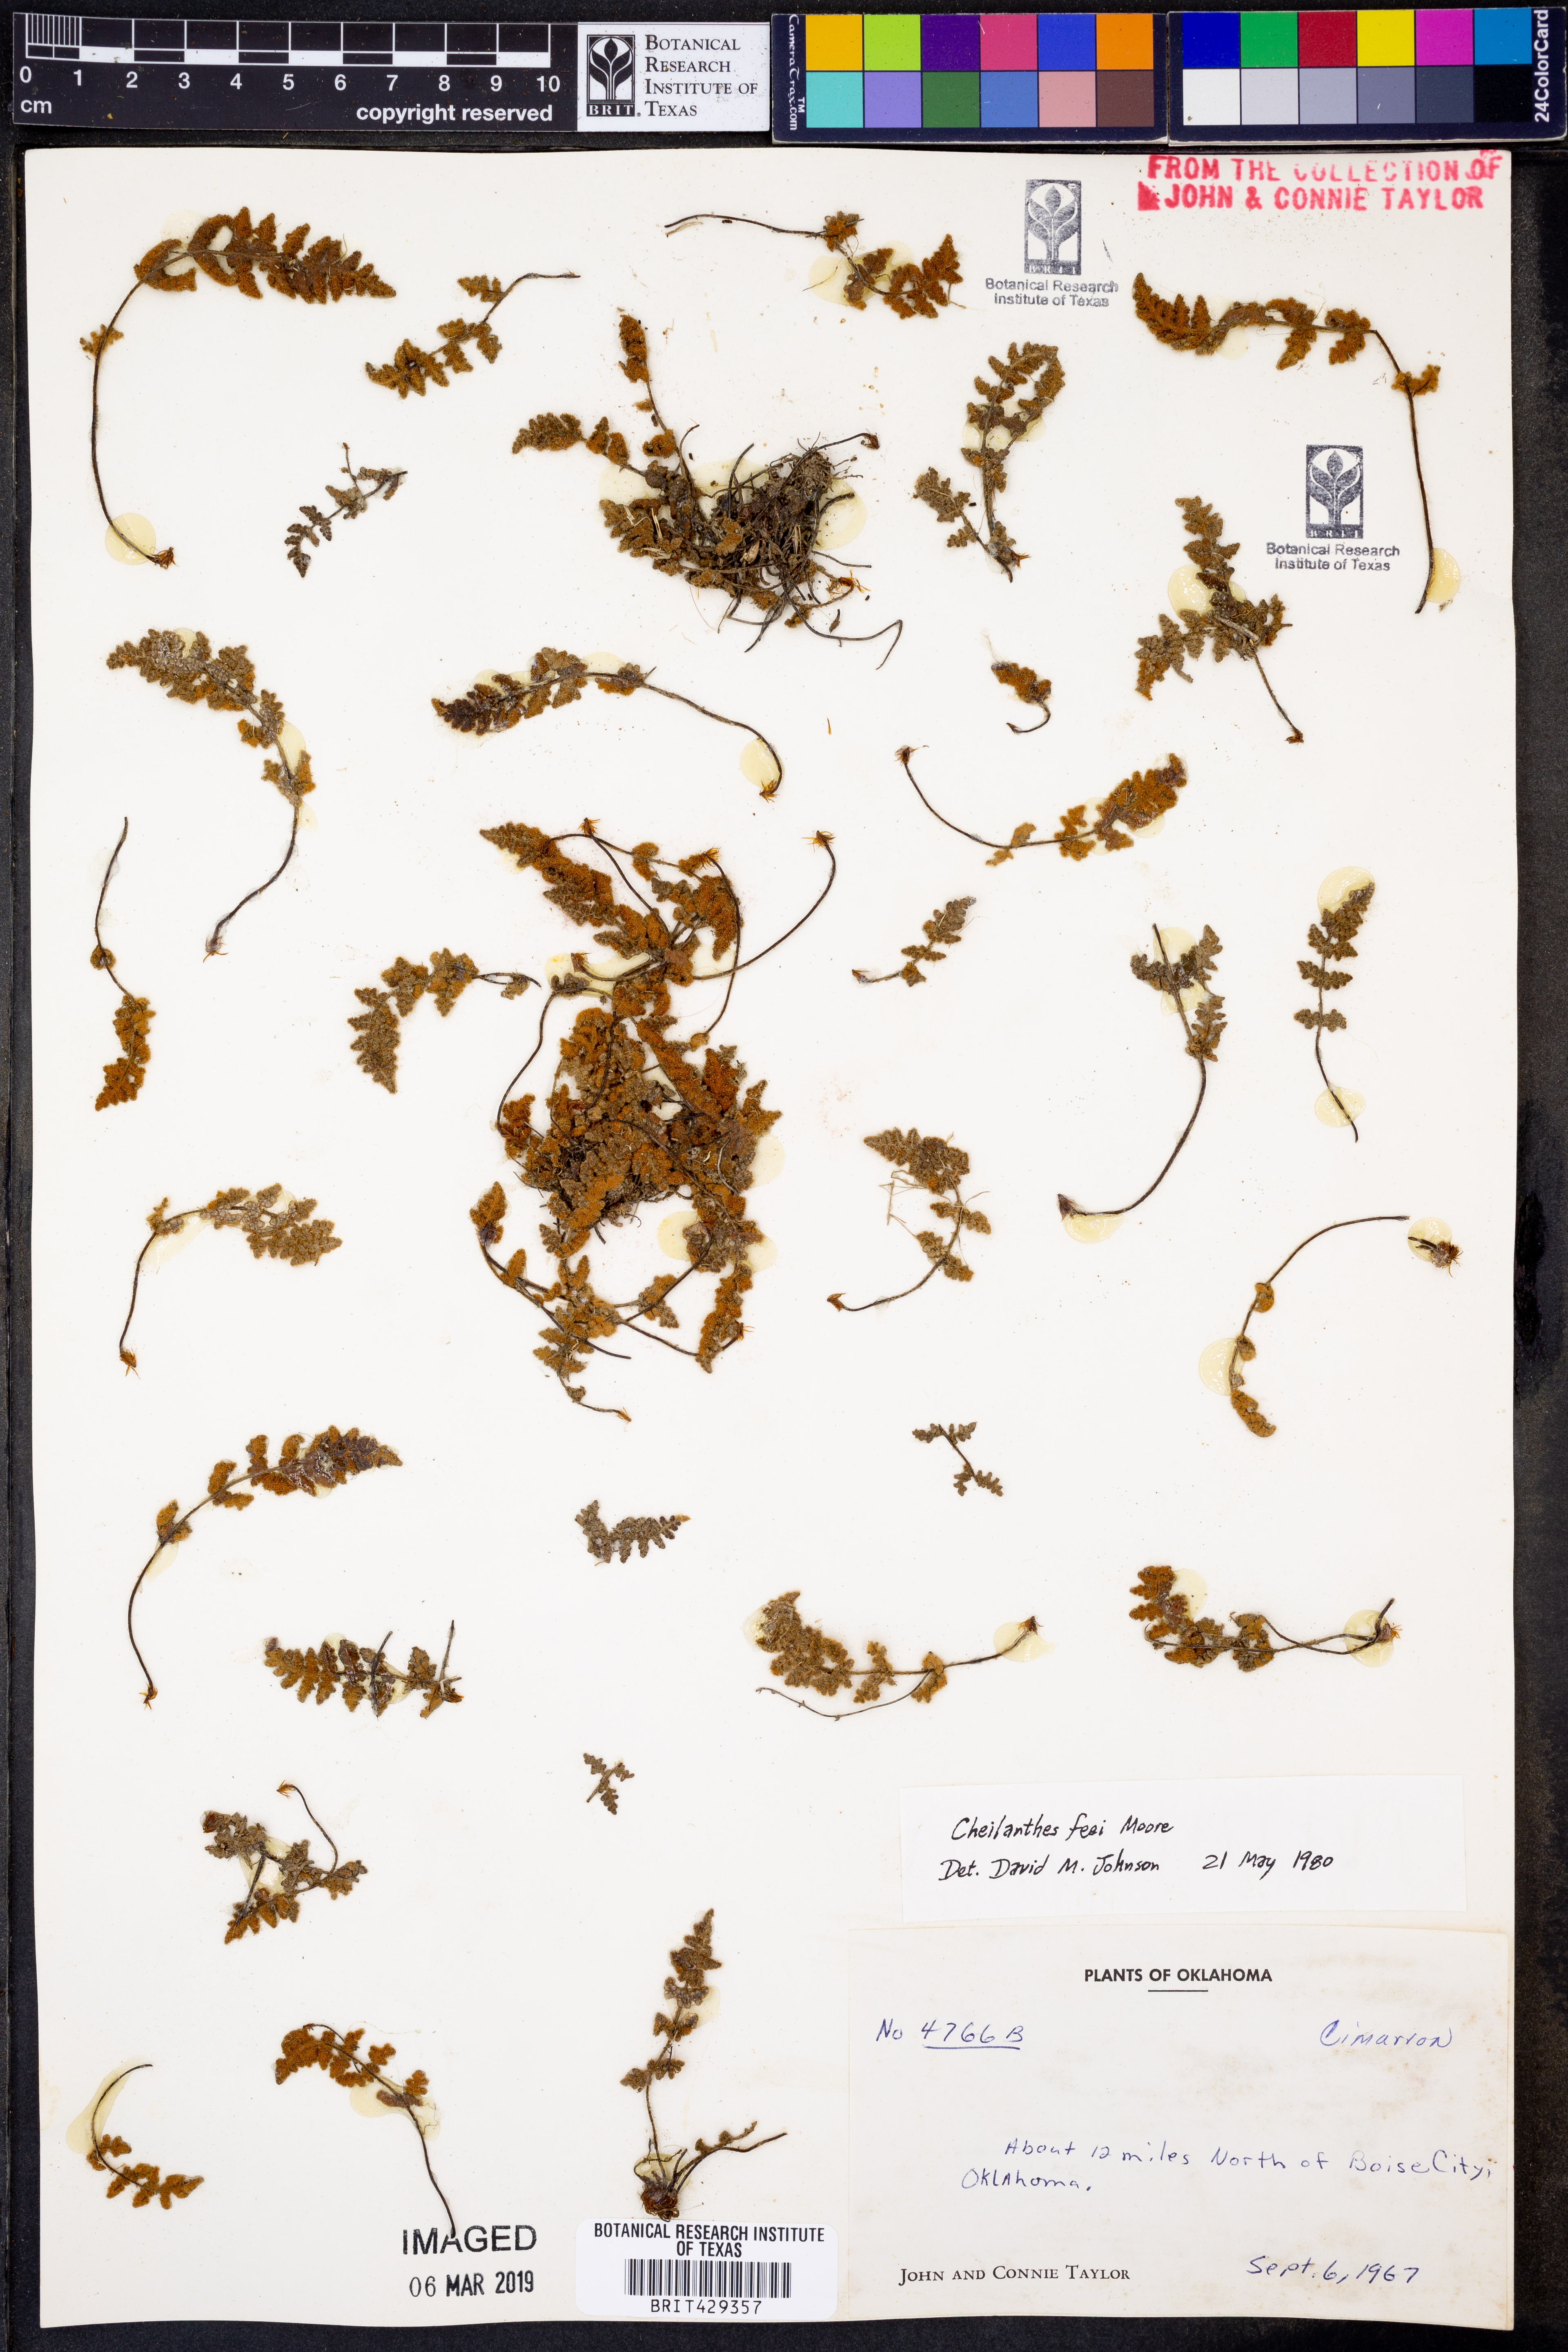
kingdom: Plantae
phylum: Tracheophyta
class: Polypodiopsida
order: Polypodiales
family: Pteridaceae
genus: Myriopteris
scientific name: Myriopteris gracilis
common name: Fee's lip fern
